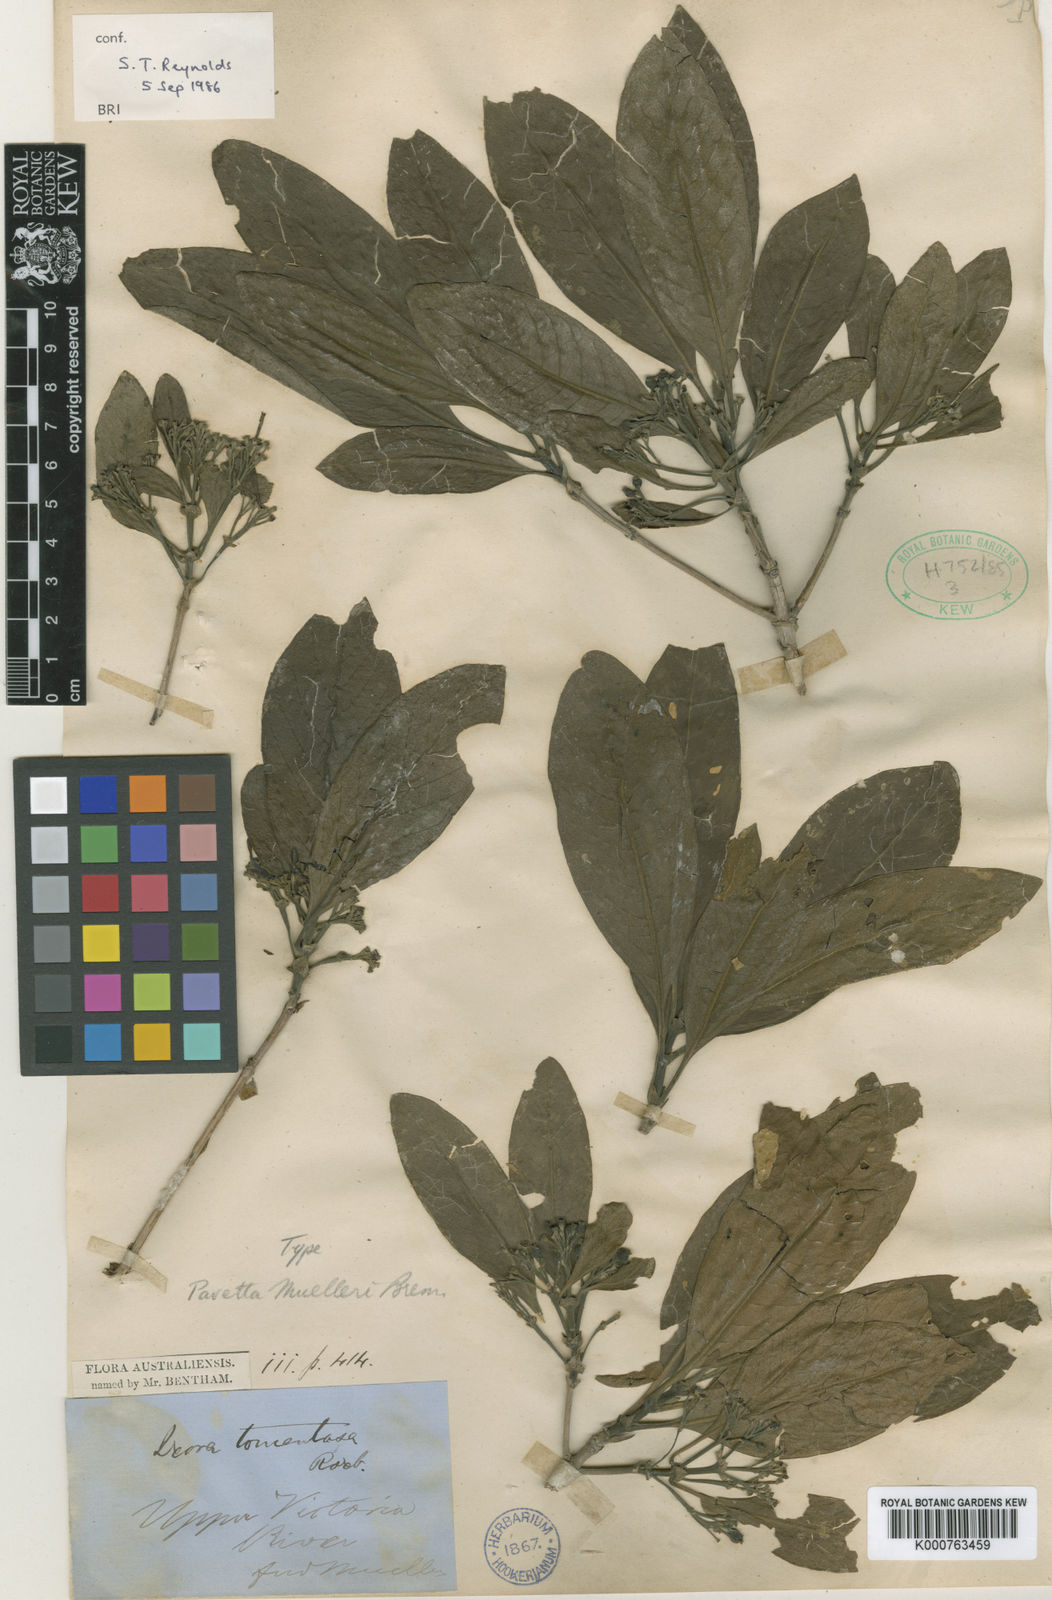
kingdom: Plantae
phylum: Tracheophyta
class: Magnoliopsida
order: Gentianales
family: Rubiaceae
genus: Pavetta
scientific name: Pavetta muelleri
